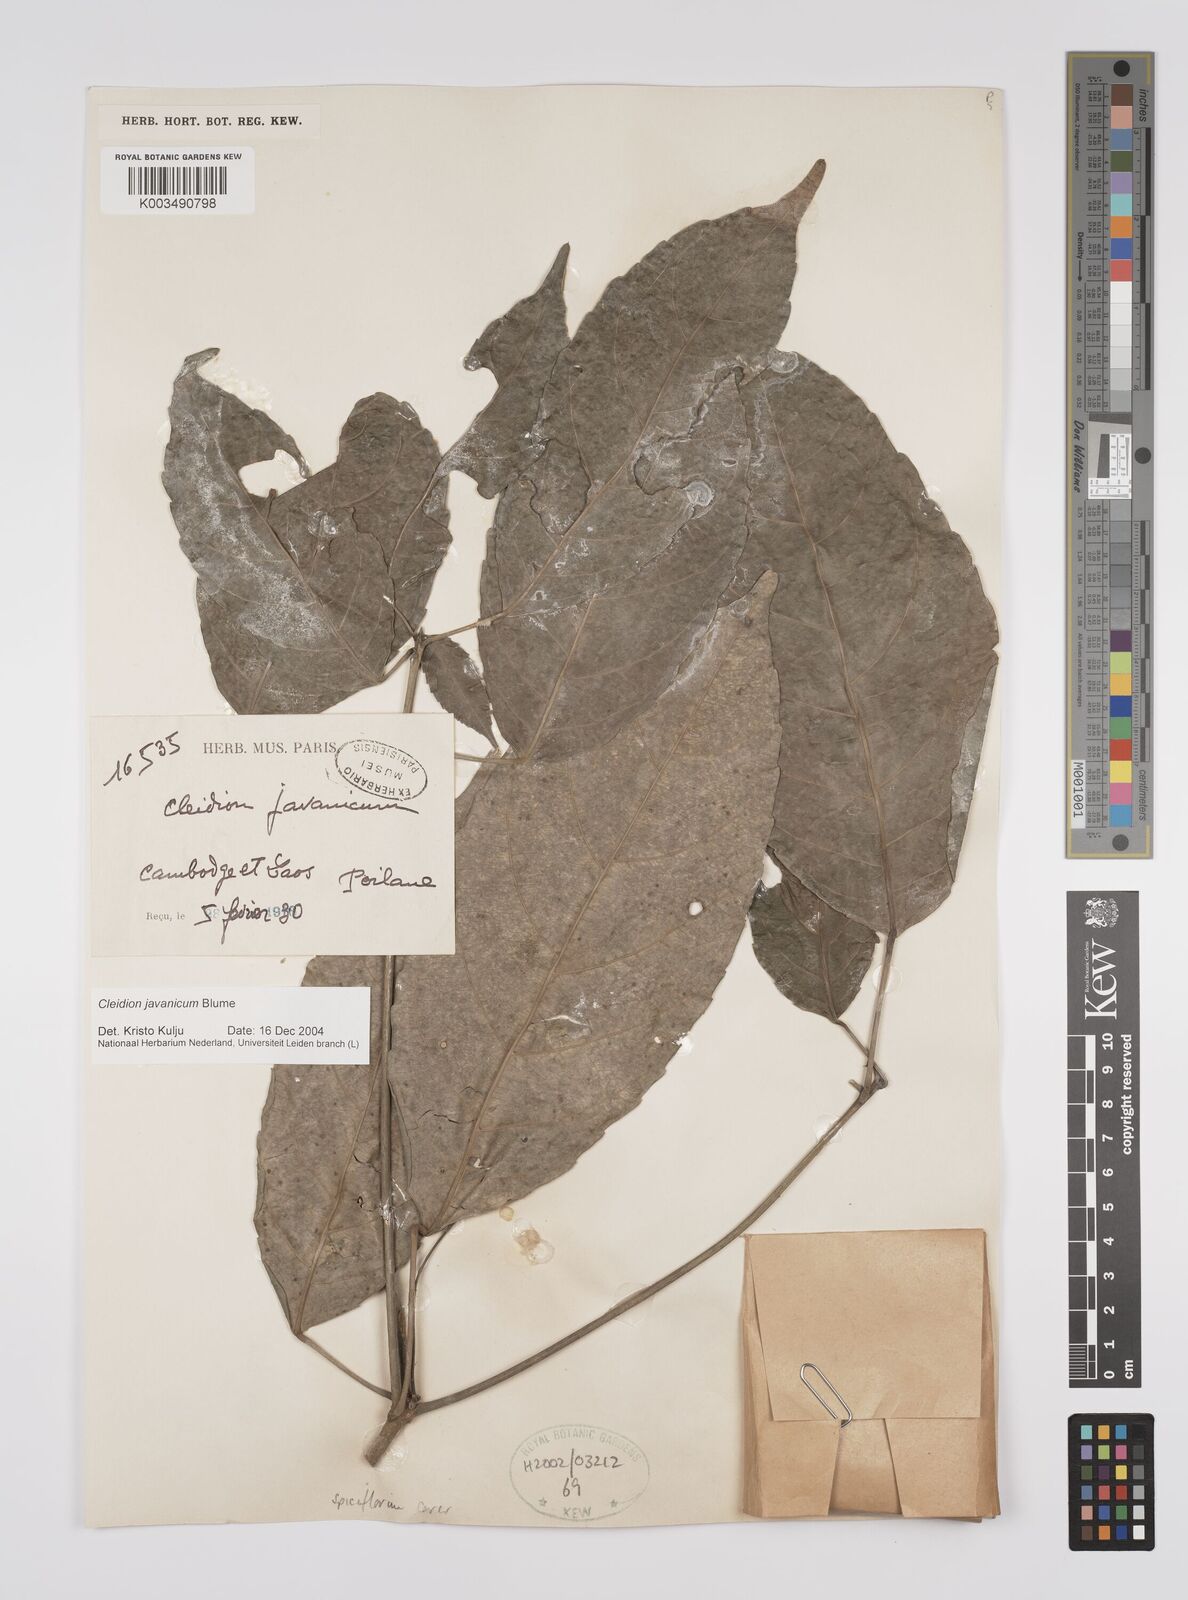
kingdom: Plantae
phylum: Tracheophyta
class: Magnoliopsida
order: Malpighiales
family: Euphorbiaceae
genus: Cleidion
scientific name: Cleidion javanicum
